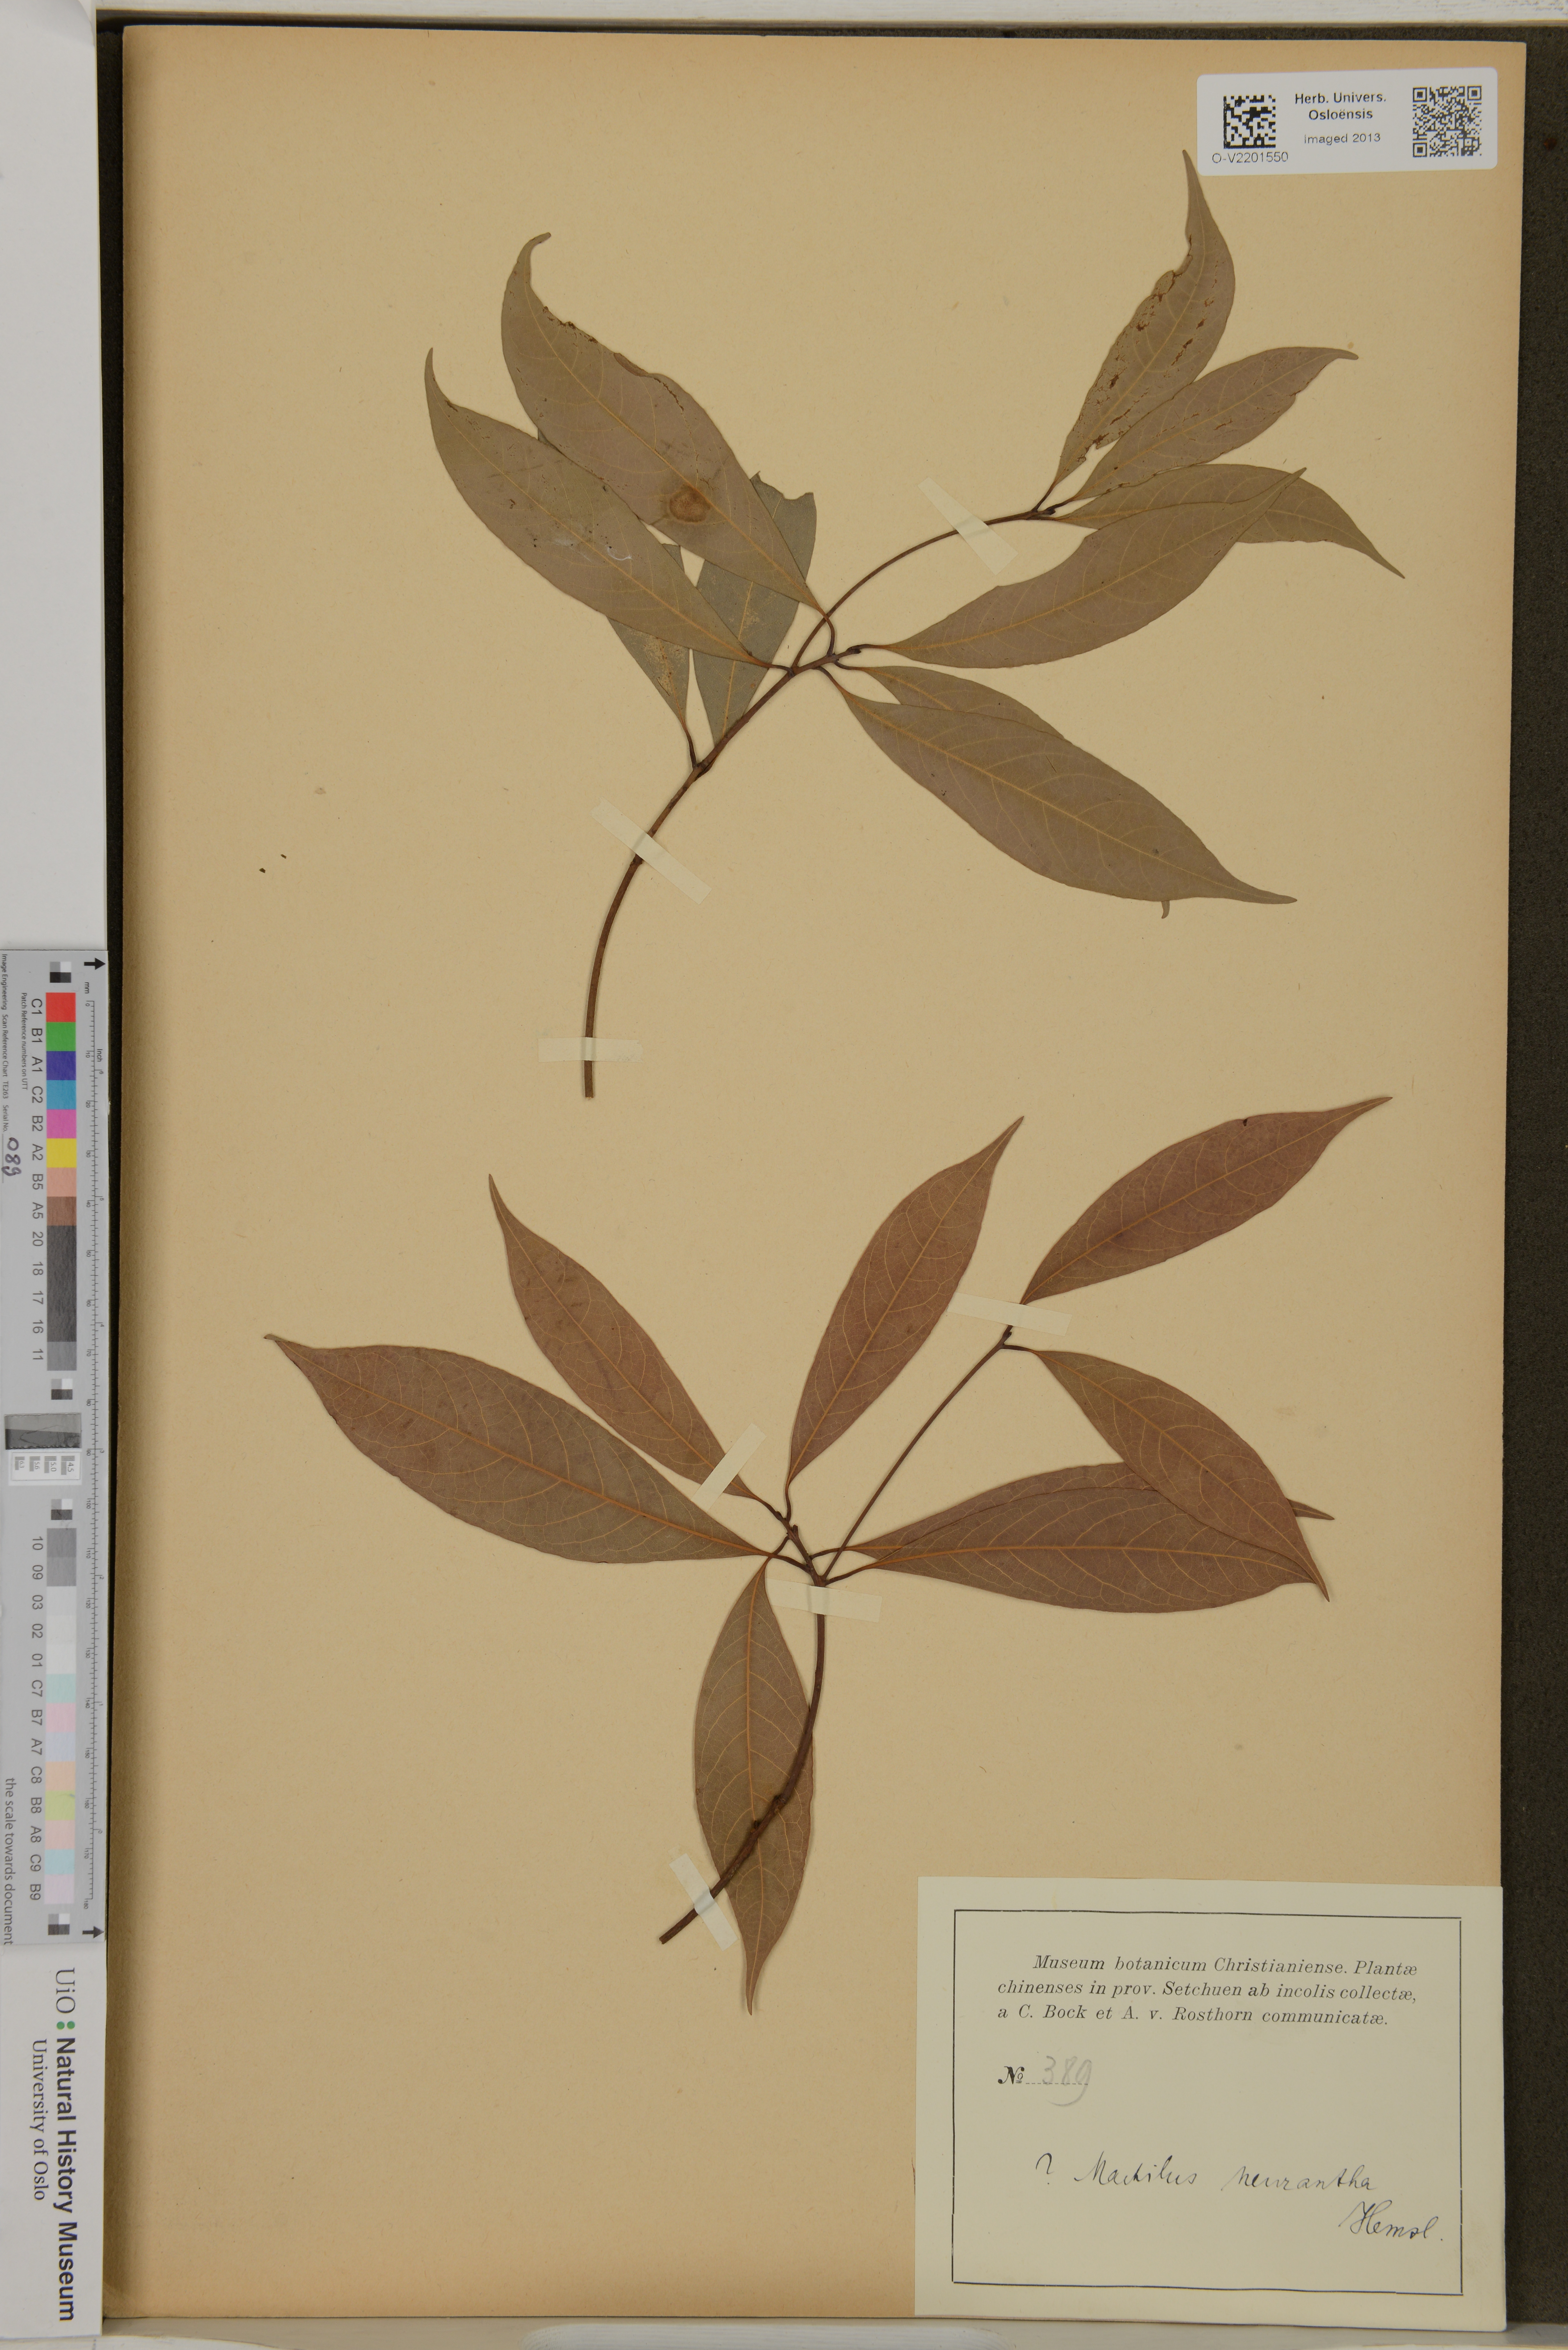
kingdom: Plantae
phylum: Tracheophyta
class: Magnoliopsida
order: Laurales
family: Lauraceae
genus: Phoebe
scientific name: Phoebe neurantha
